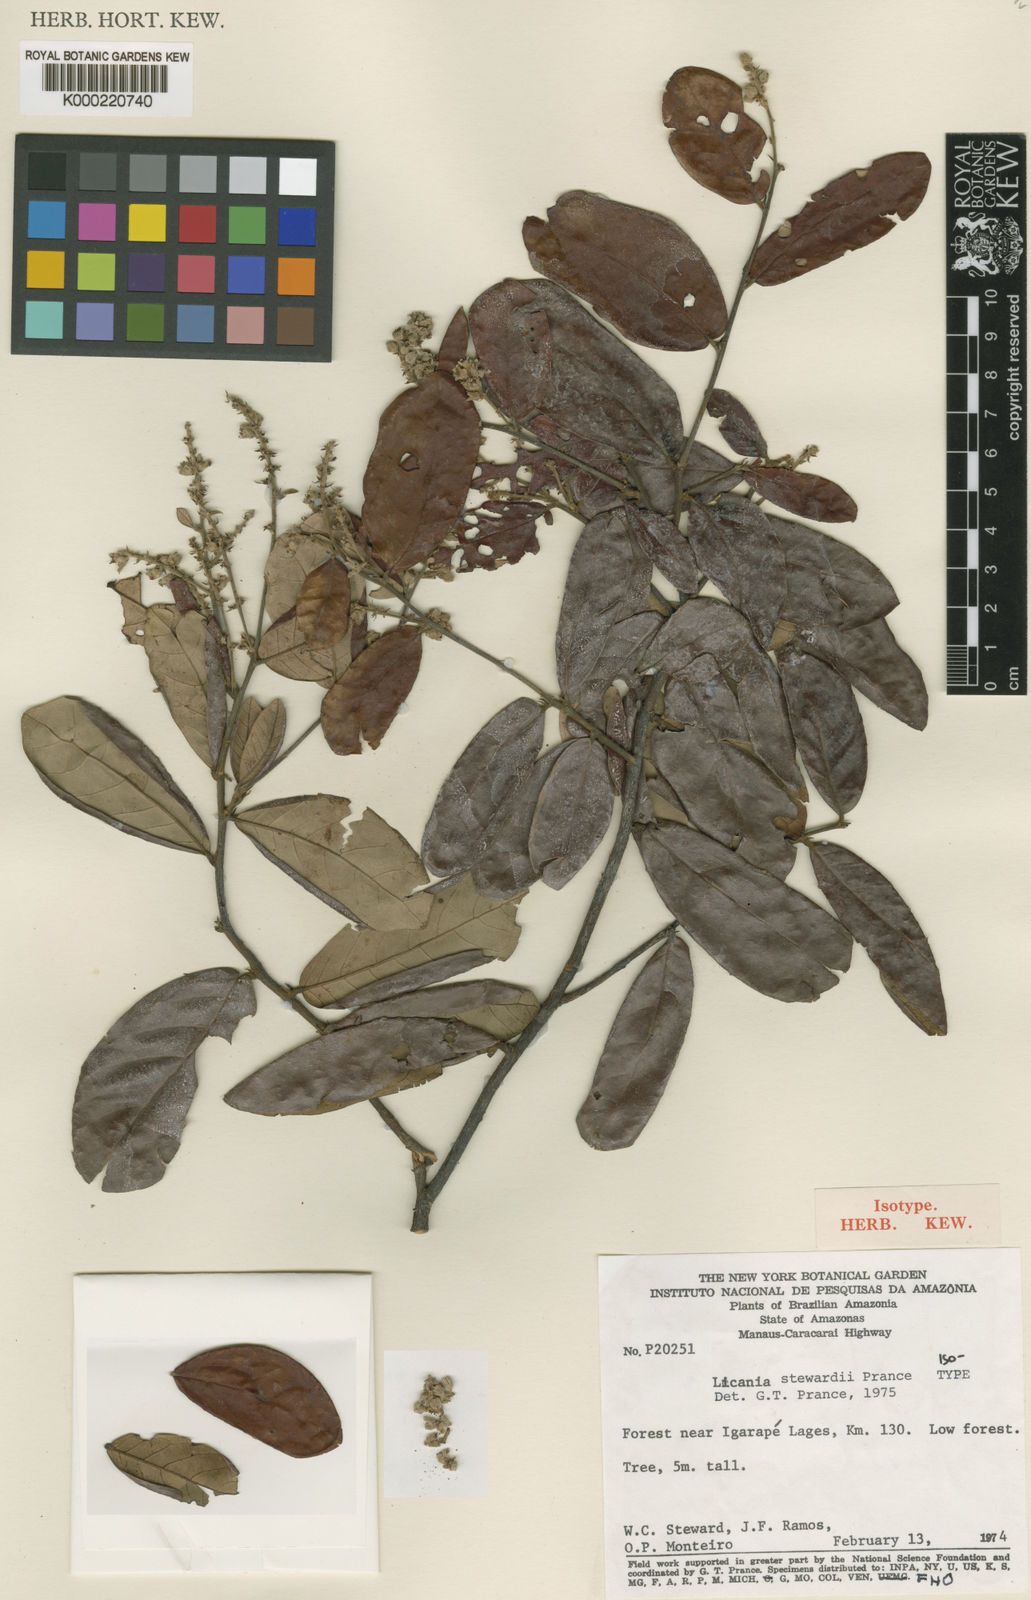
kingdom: Plantae
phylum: Tracheophyta
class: Magnoliopsida
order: Malpighiales
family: Chrysobalanaceae
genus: Licania
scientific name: Licania stewardii
